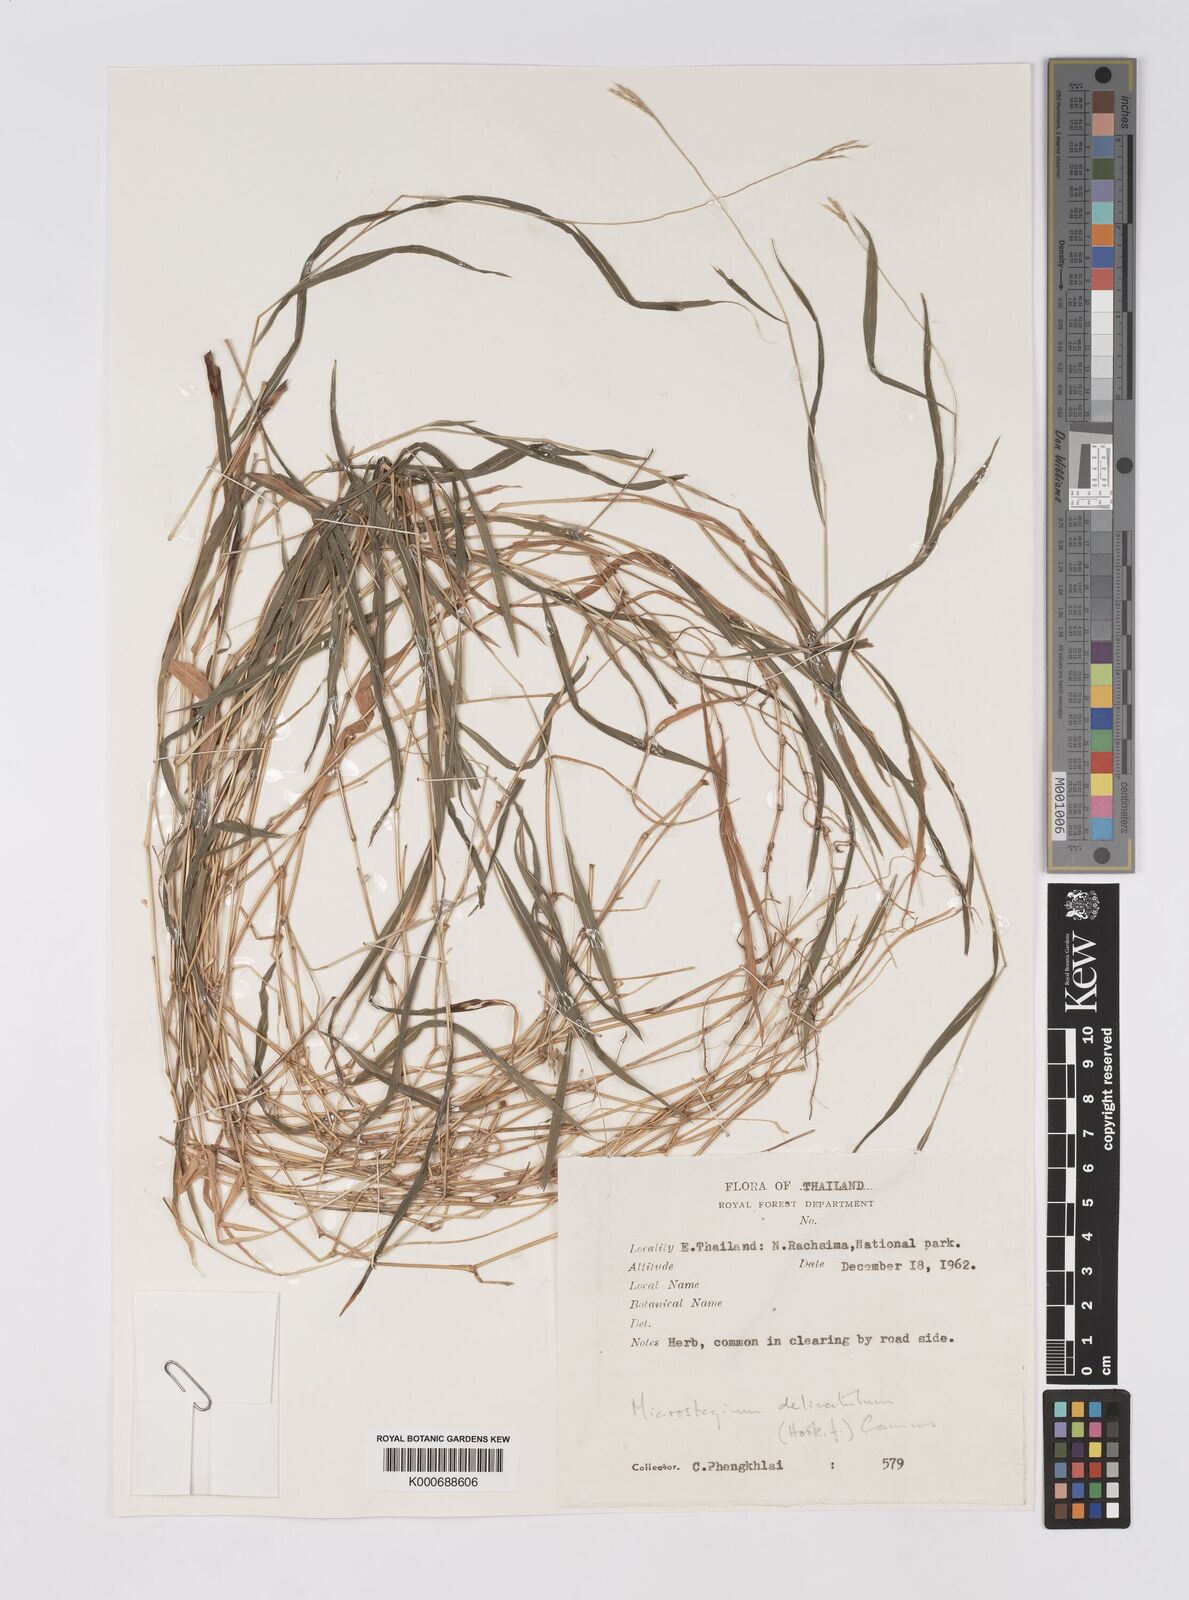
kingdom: Plantae
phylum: Tracheophyta
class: Liliopsida
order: Poales
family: Poaceae
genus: Microstegium
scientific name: Microstegium delicatulum
